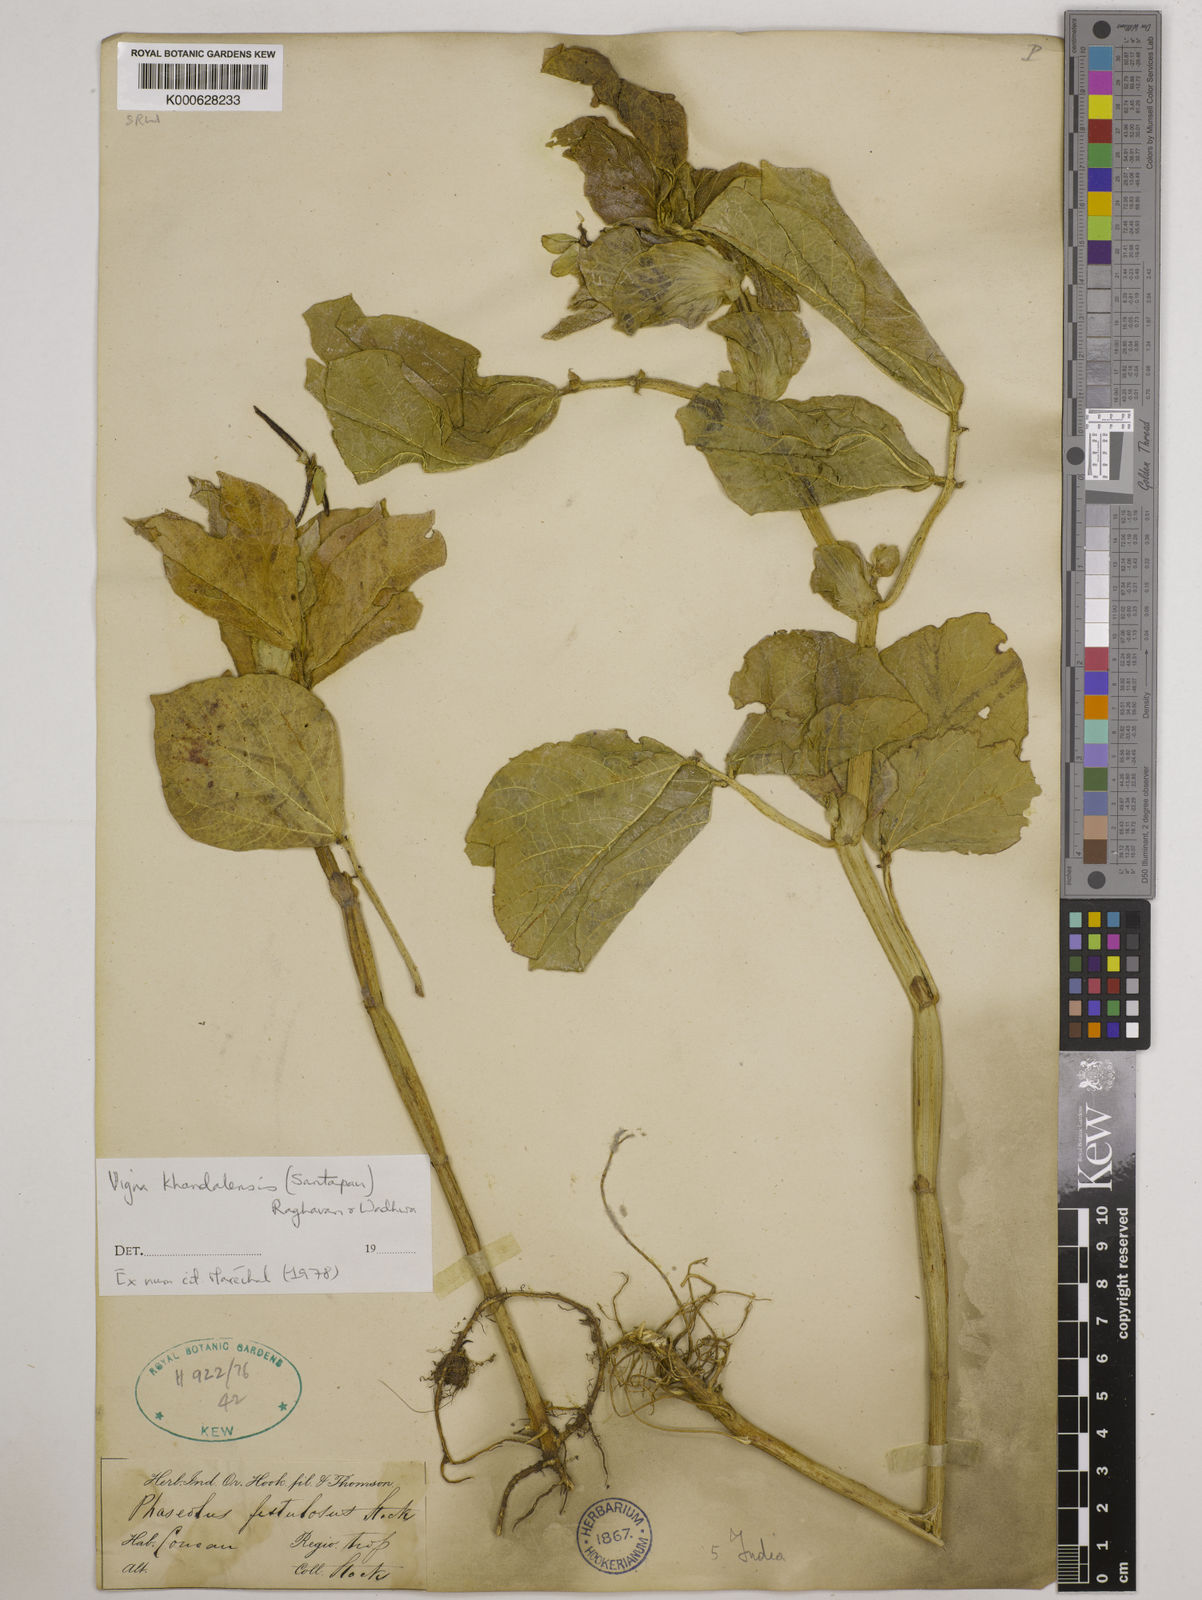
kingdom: Plantae
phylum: Tracheophyta
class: Magnoliopsida
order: Fabales
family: Fabaceae
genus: Vigna
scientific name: Vigna khandalensis
